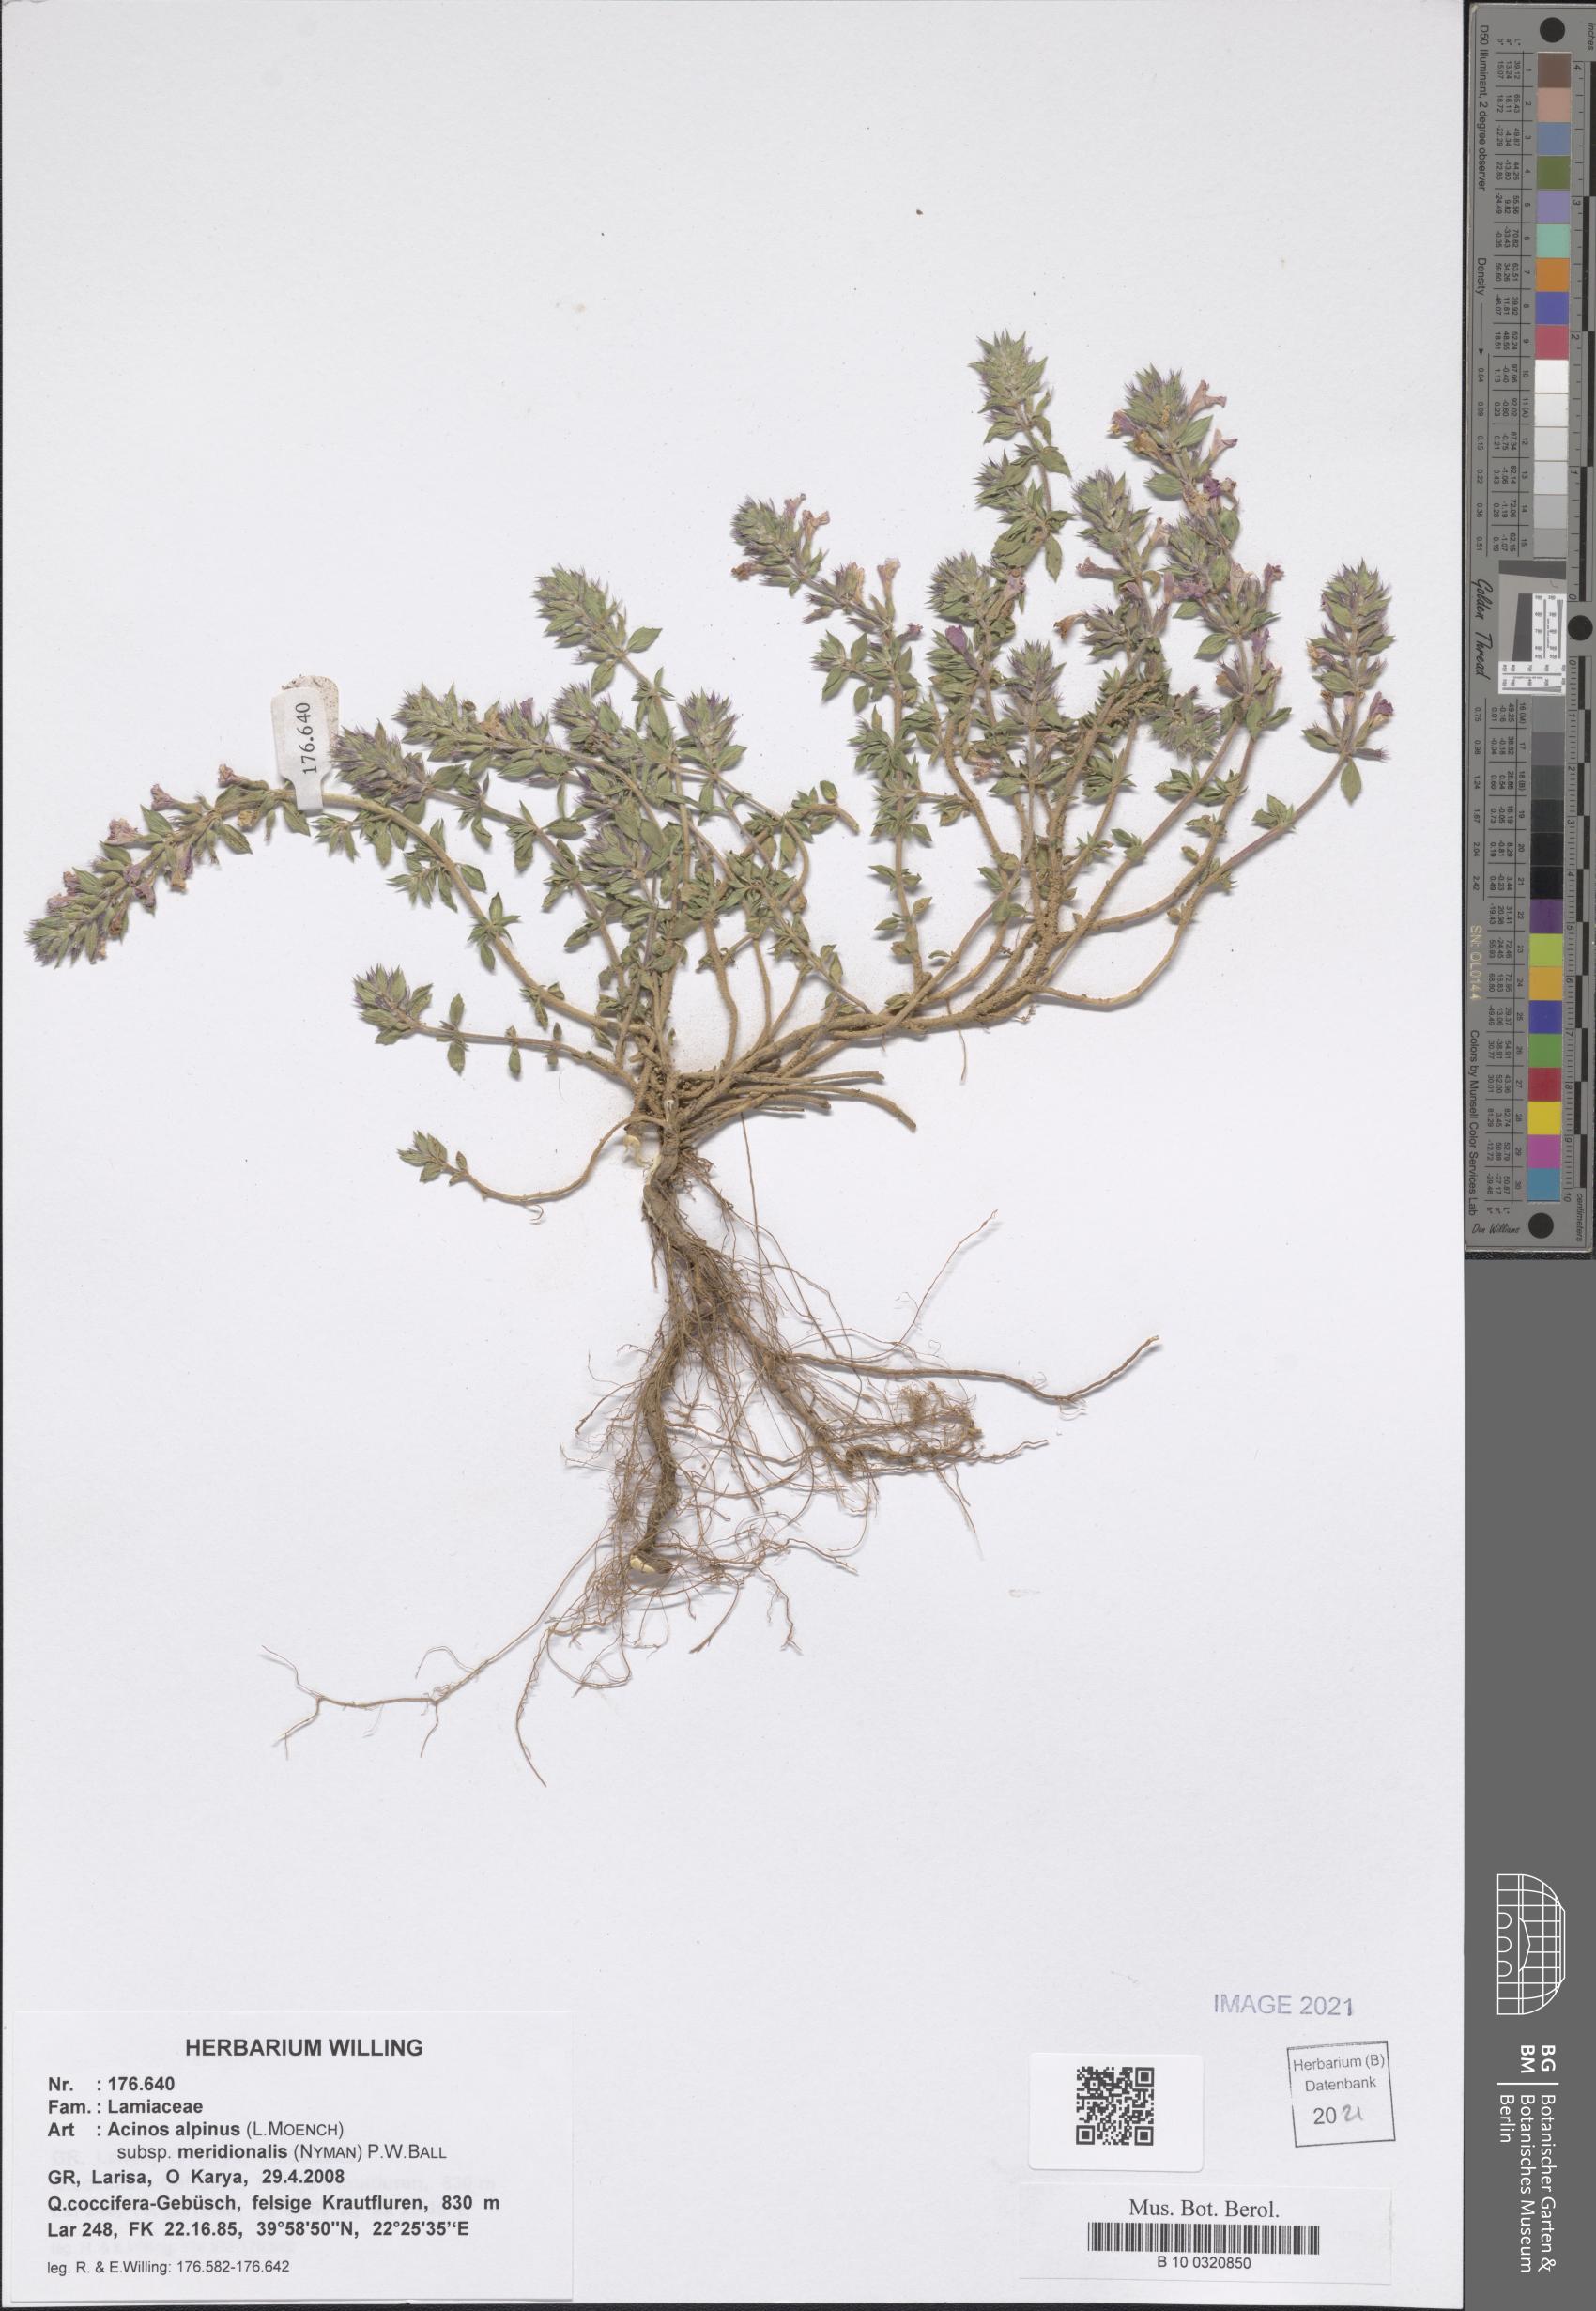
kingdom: Plantae
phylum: Tracheophyta
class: Magnoliopsida
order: Lamiales
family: Lamiaceae
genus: Clinopodium
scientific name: Clinopodium alpinum
